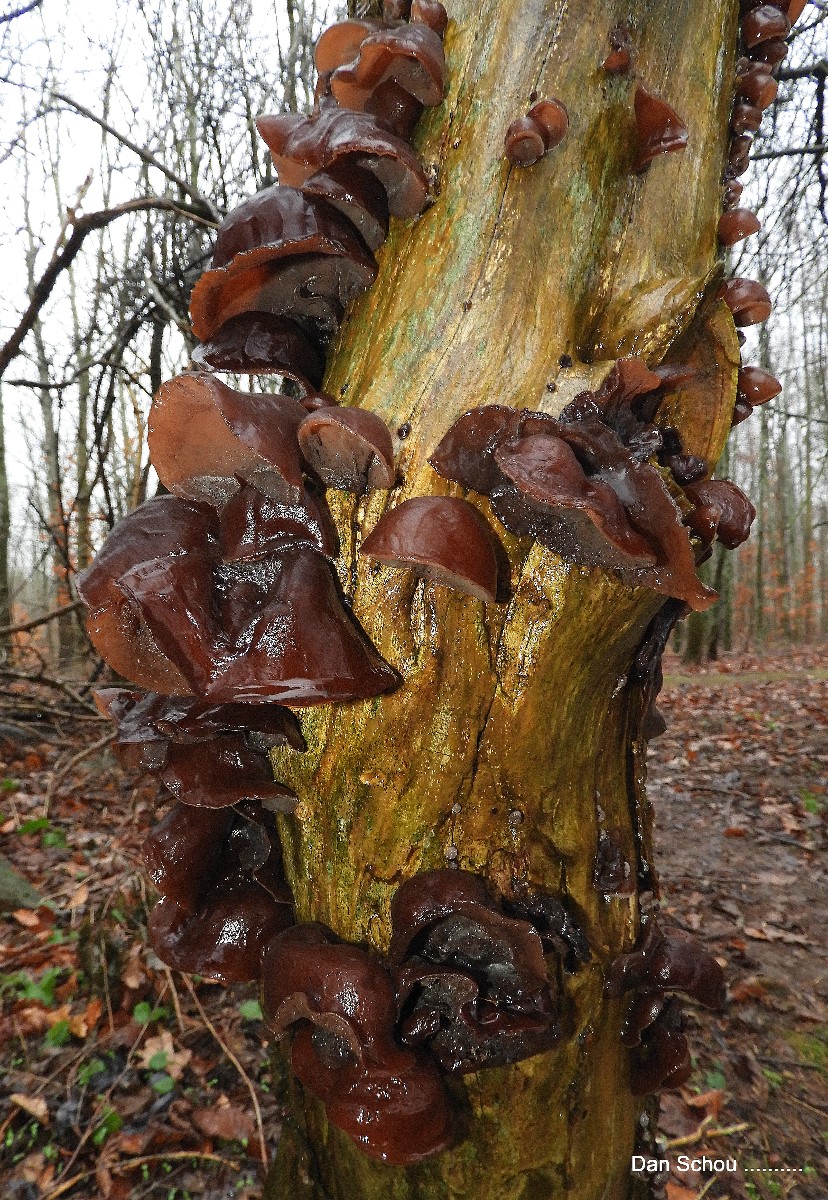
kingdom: Fungi
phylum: Basidiomycota
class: Agaricomycetes
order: Auriculariales
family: Auriculariaceae
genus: Auricularia
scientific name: Auricularia auricula-judae
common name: almindelig judasøre
